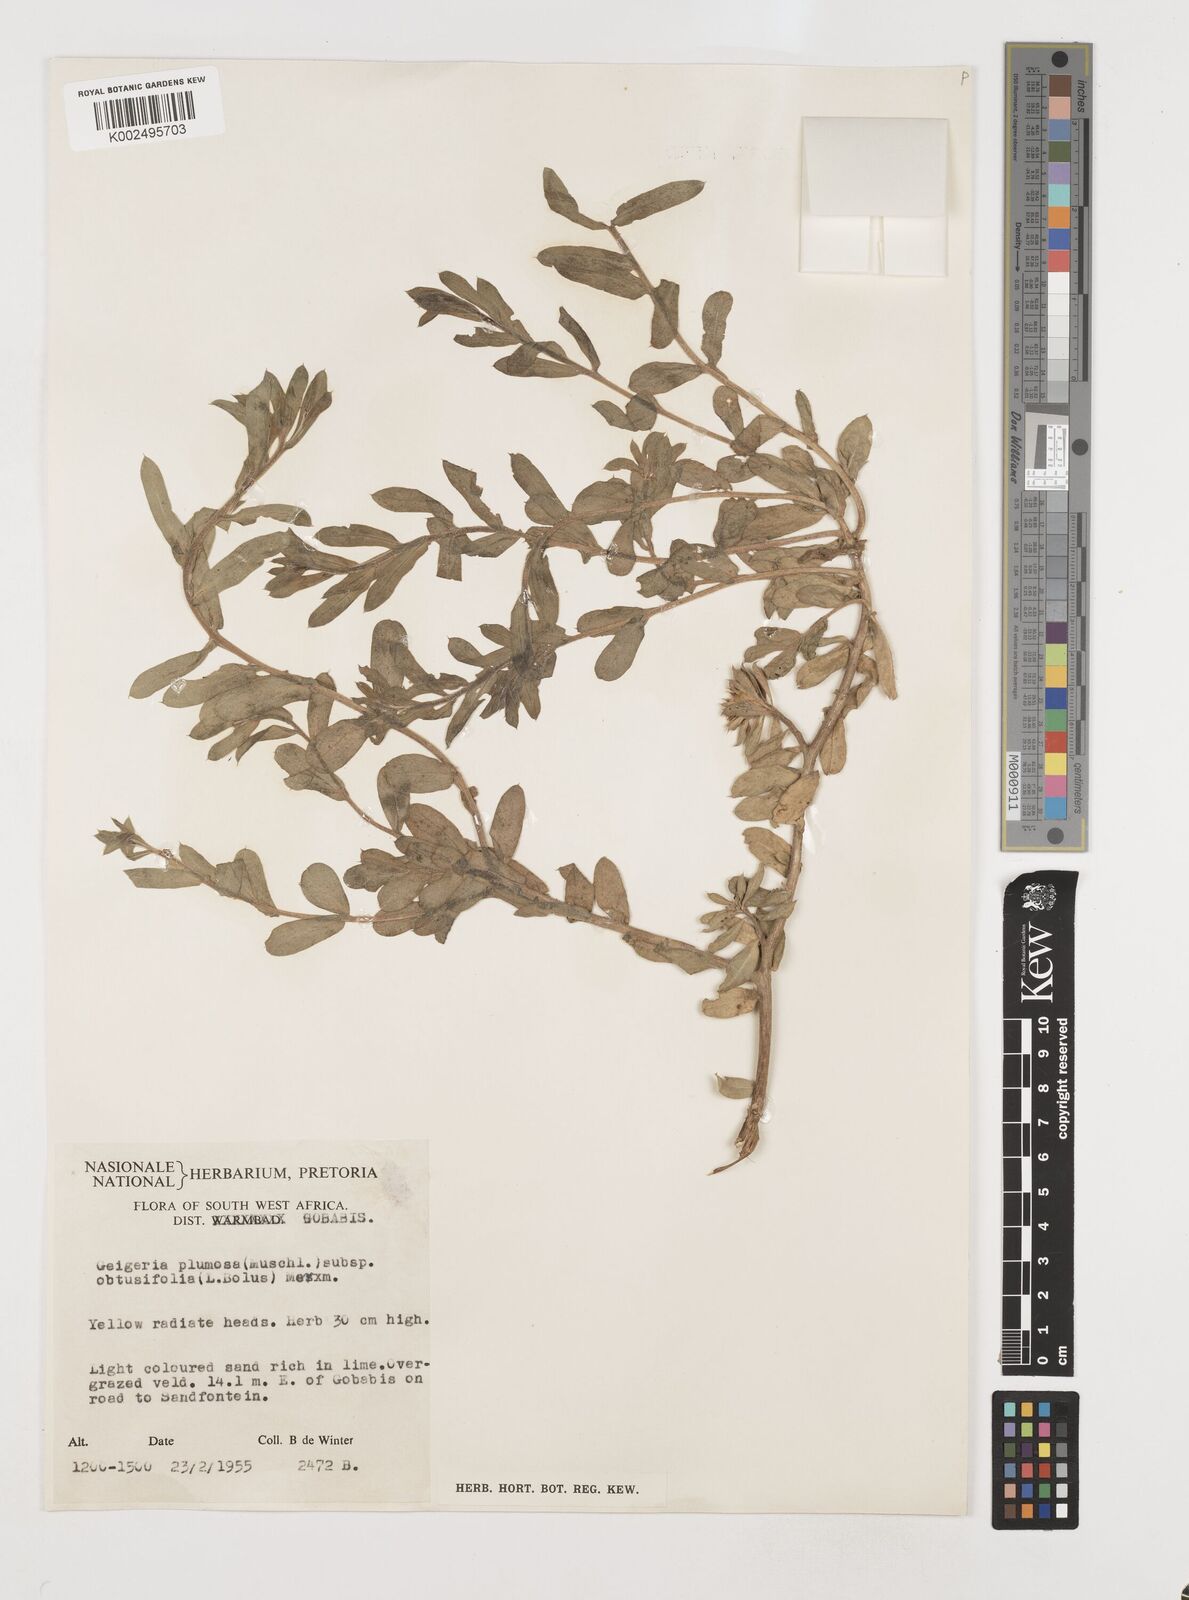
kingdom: Plantae
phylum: Tracheophyta
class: Magnoliopsida
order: Asterales
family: Asteraceae
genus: Geigeria
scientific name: Geigeria plumosa
